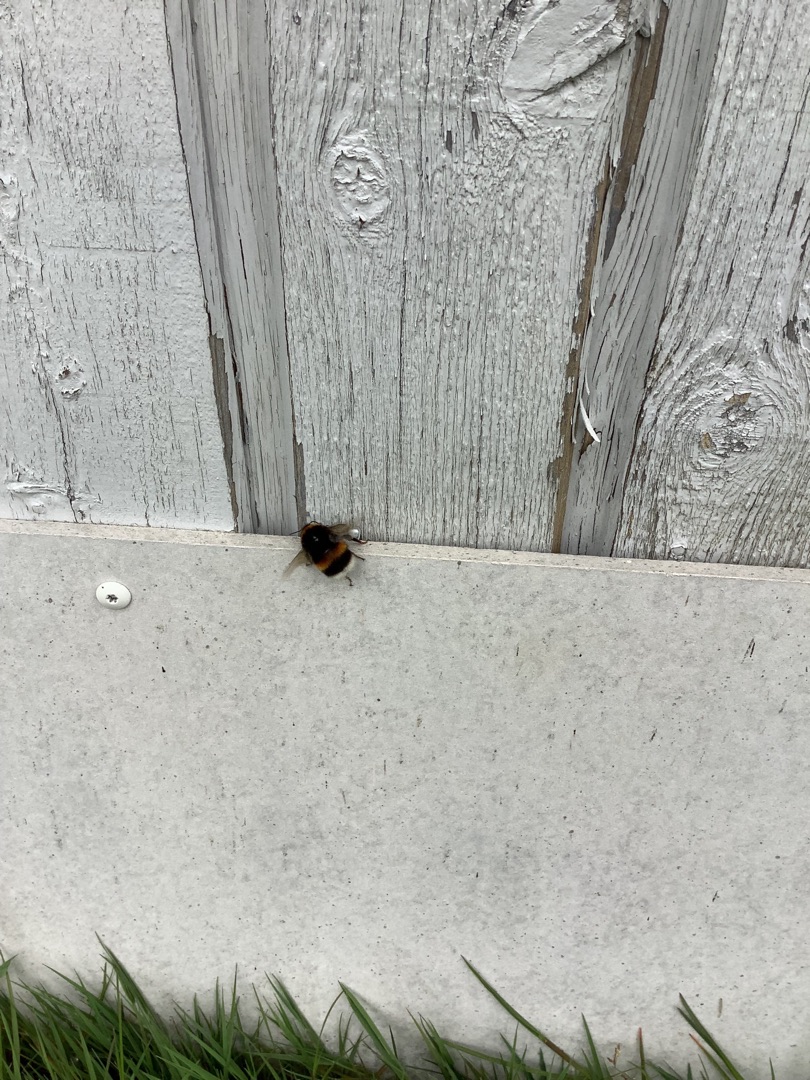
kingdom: Animalia
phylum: Arthropoda
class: Insecta
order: Hymenoptera
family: Apidae
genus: Bombus
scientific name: Bombus
